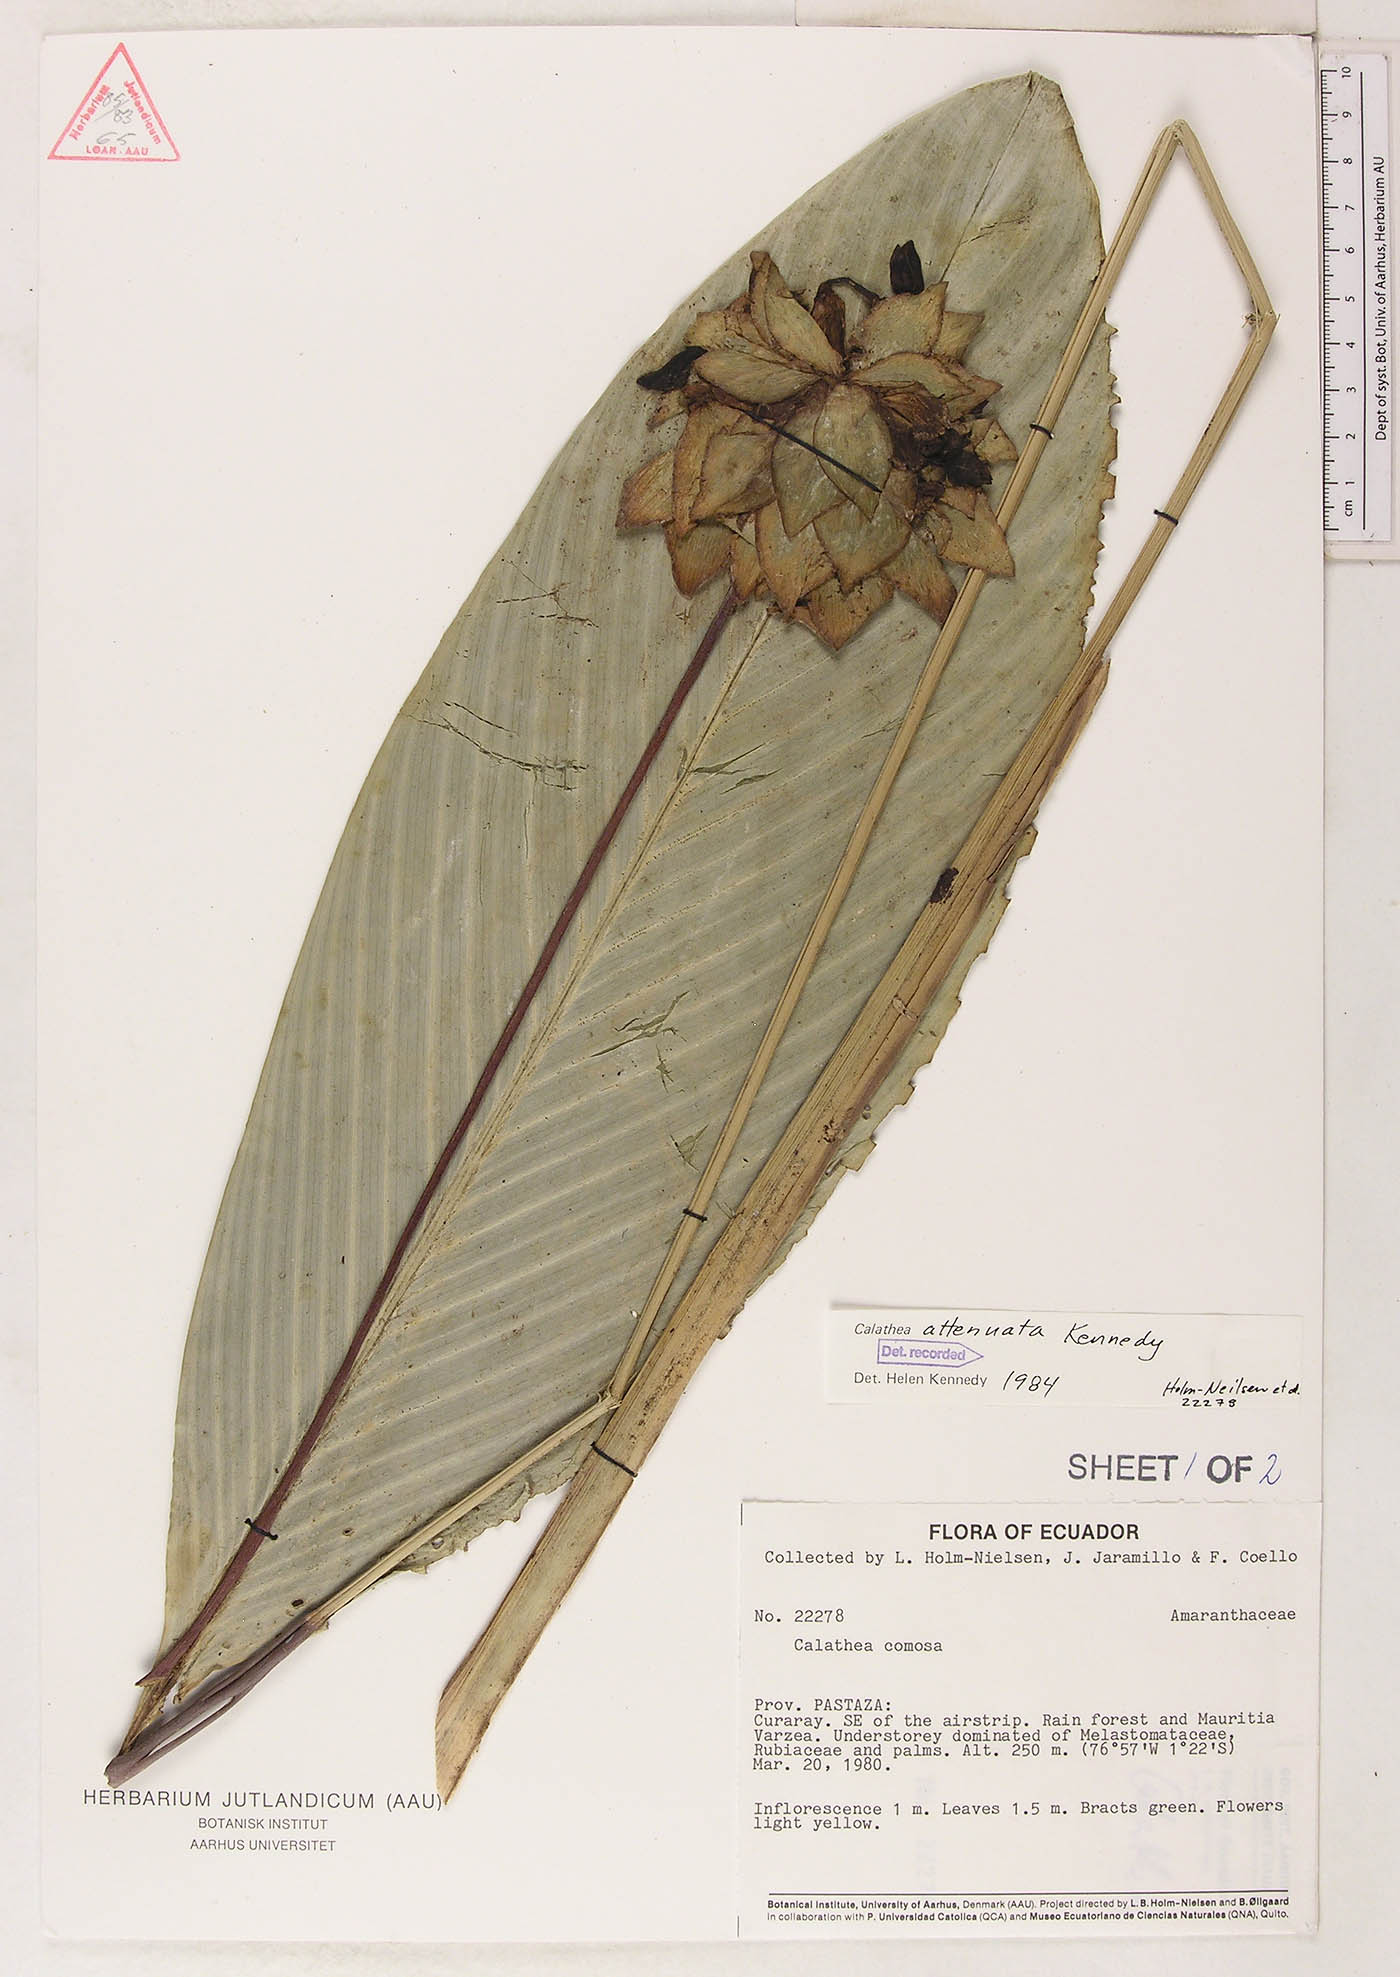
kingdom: Plantae
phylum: Tracheophyta
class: Liliopsida
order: Zingiberales
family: Marantaceae
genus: Goeppertia
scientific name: Goeppertia attenuata
